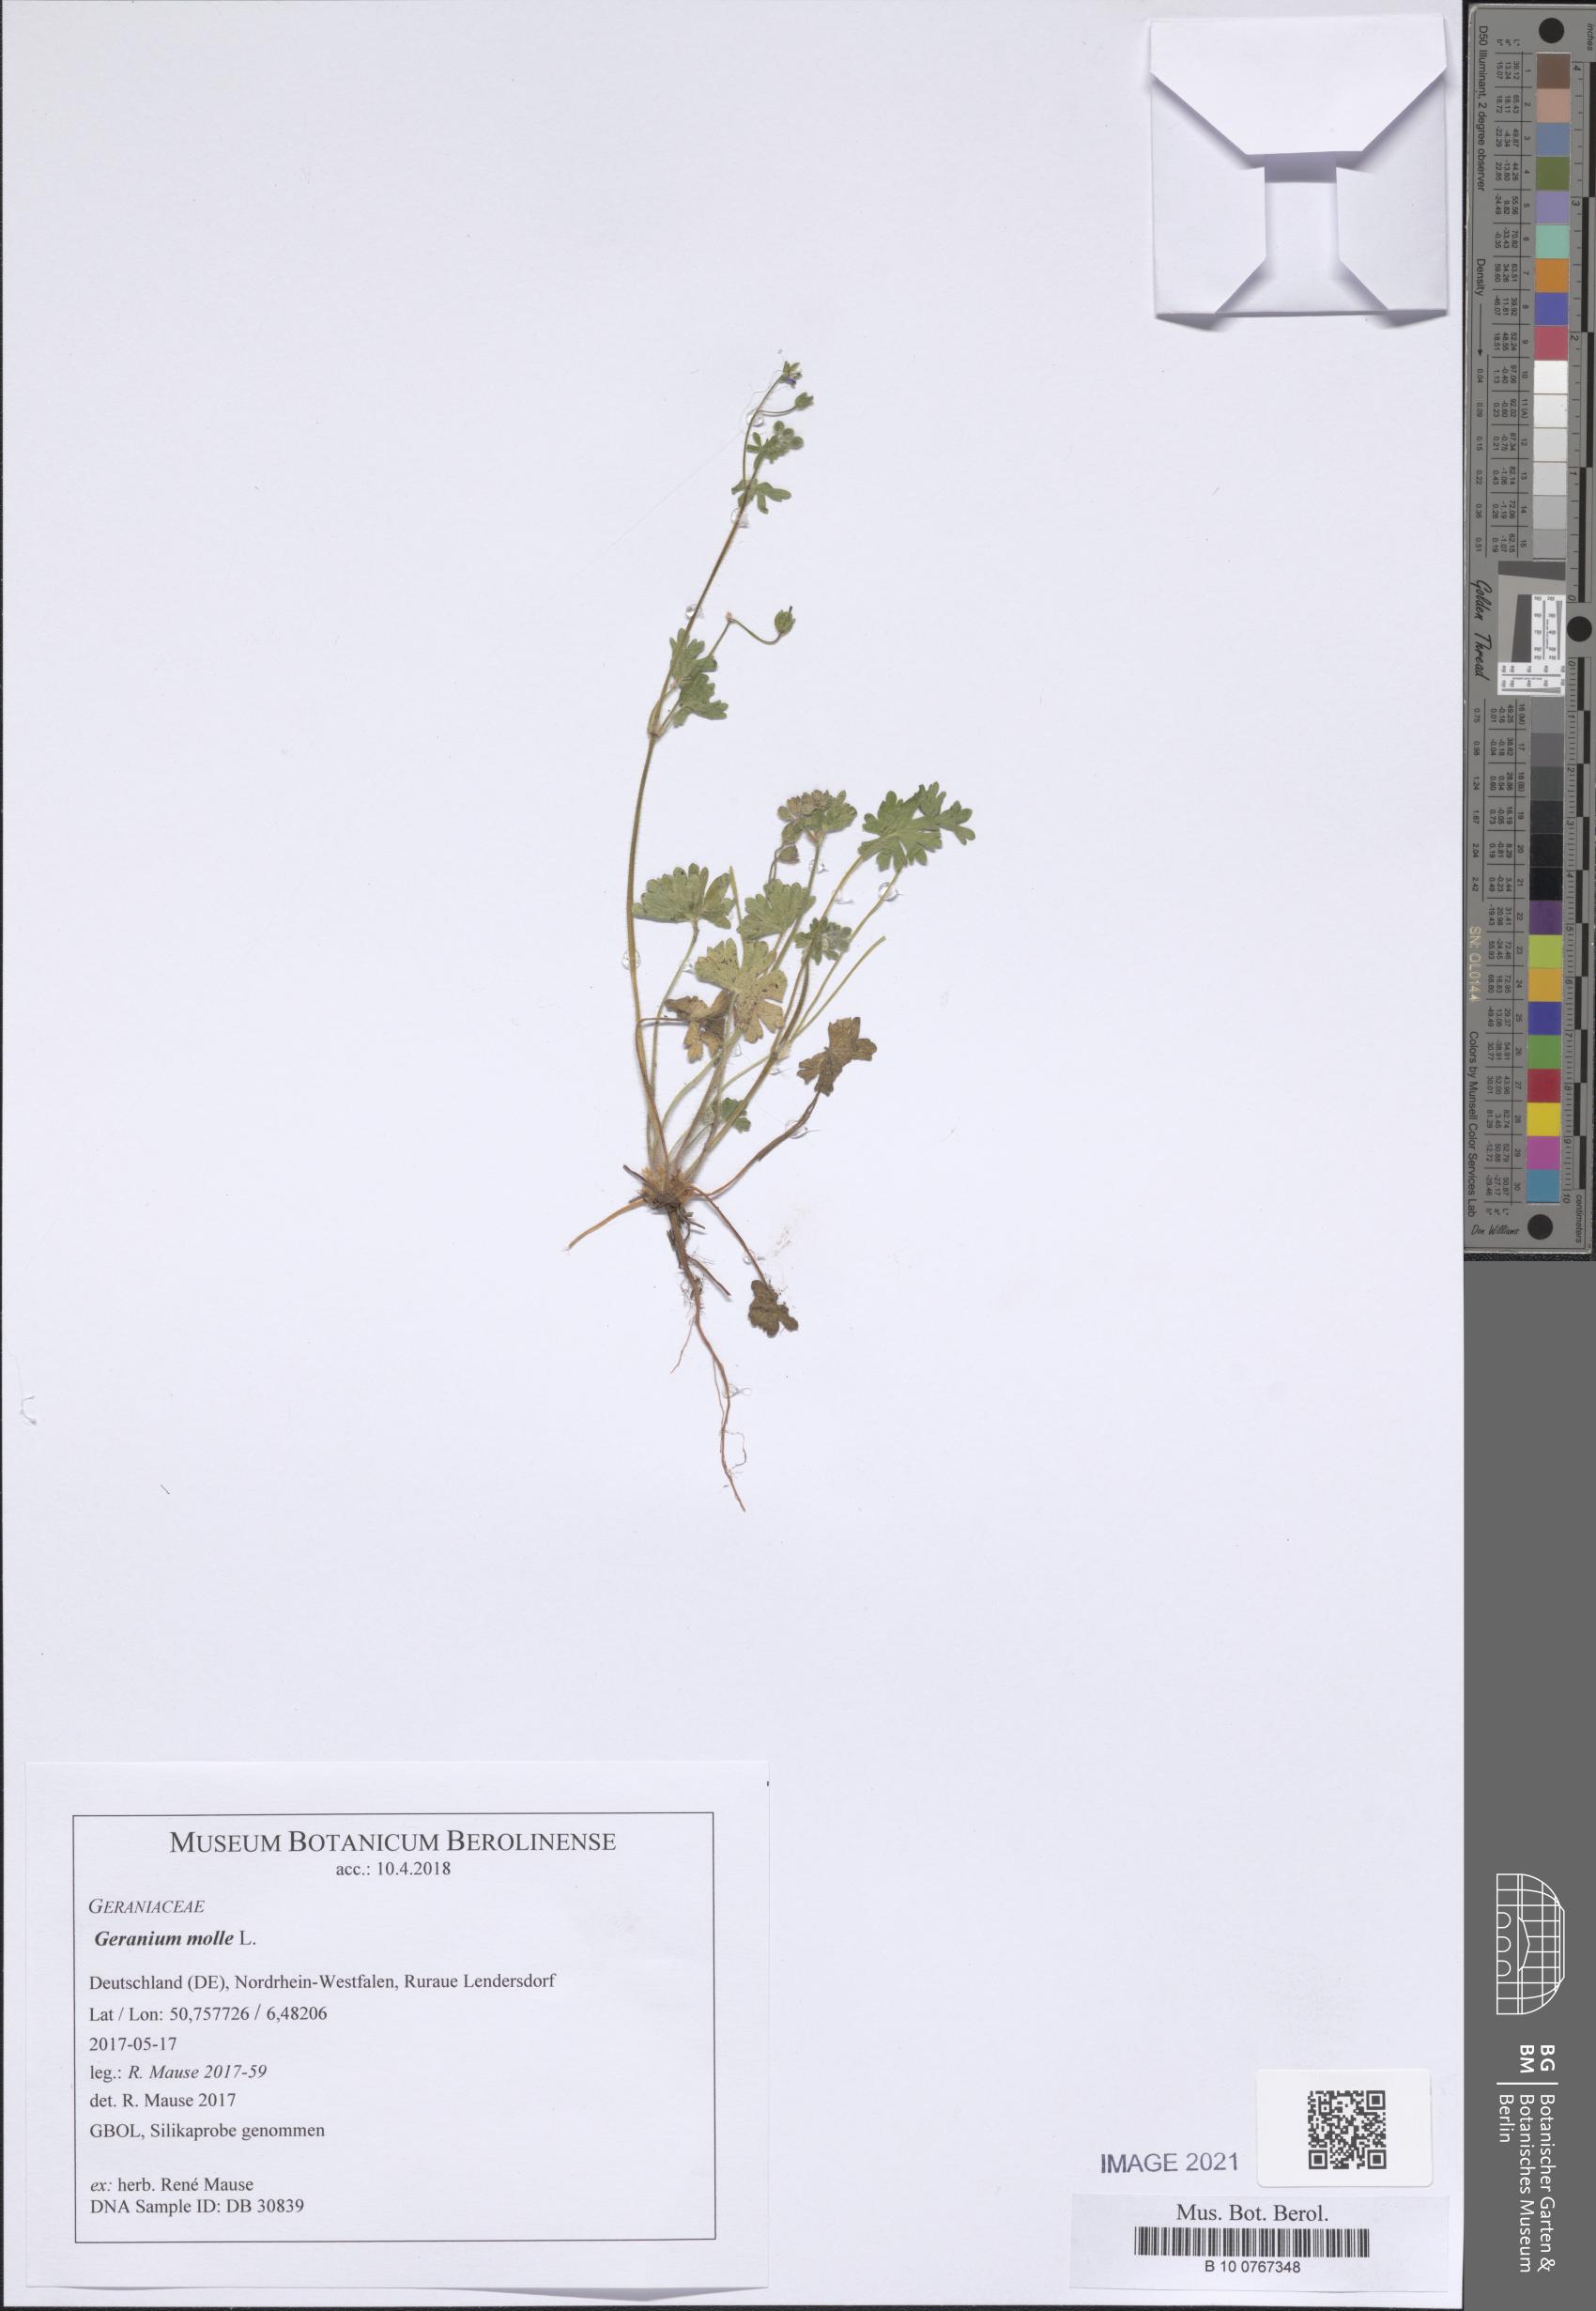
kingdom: Plantae
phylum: Tracheophyta
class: Magnoliopsida
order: Geraniales
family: Geraniaceae
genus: Geranium
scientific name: Geranium molle
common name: Dove's-foot crane's-bill
